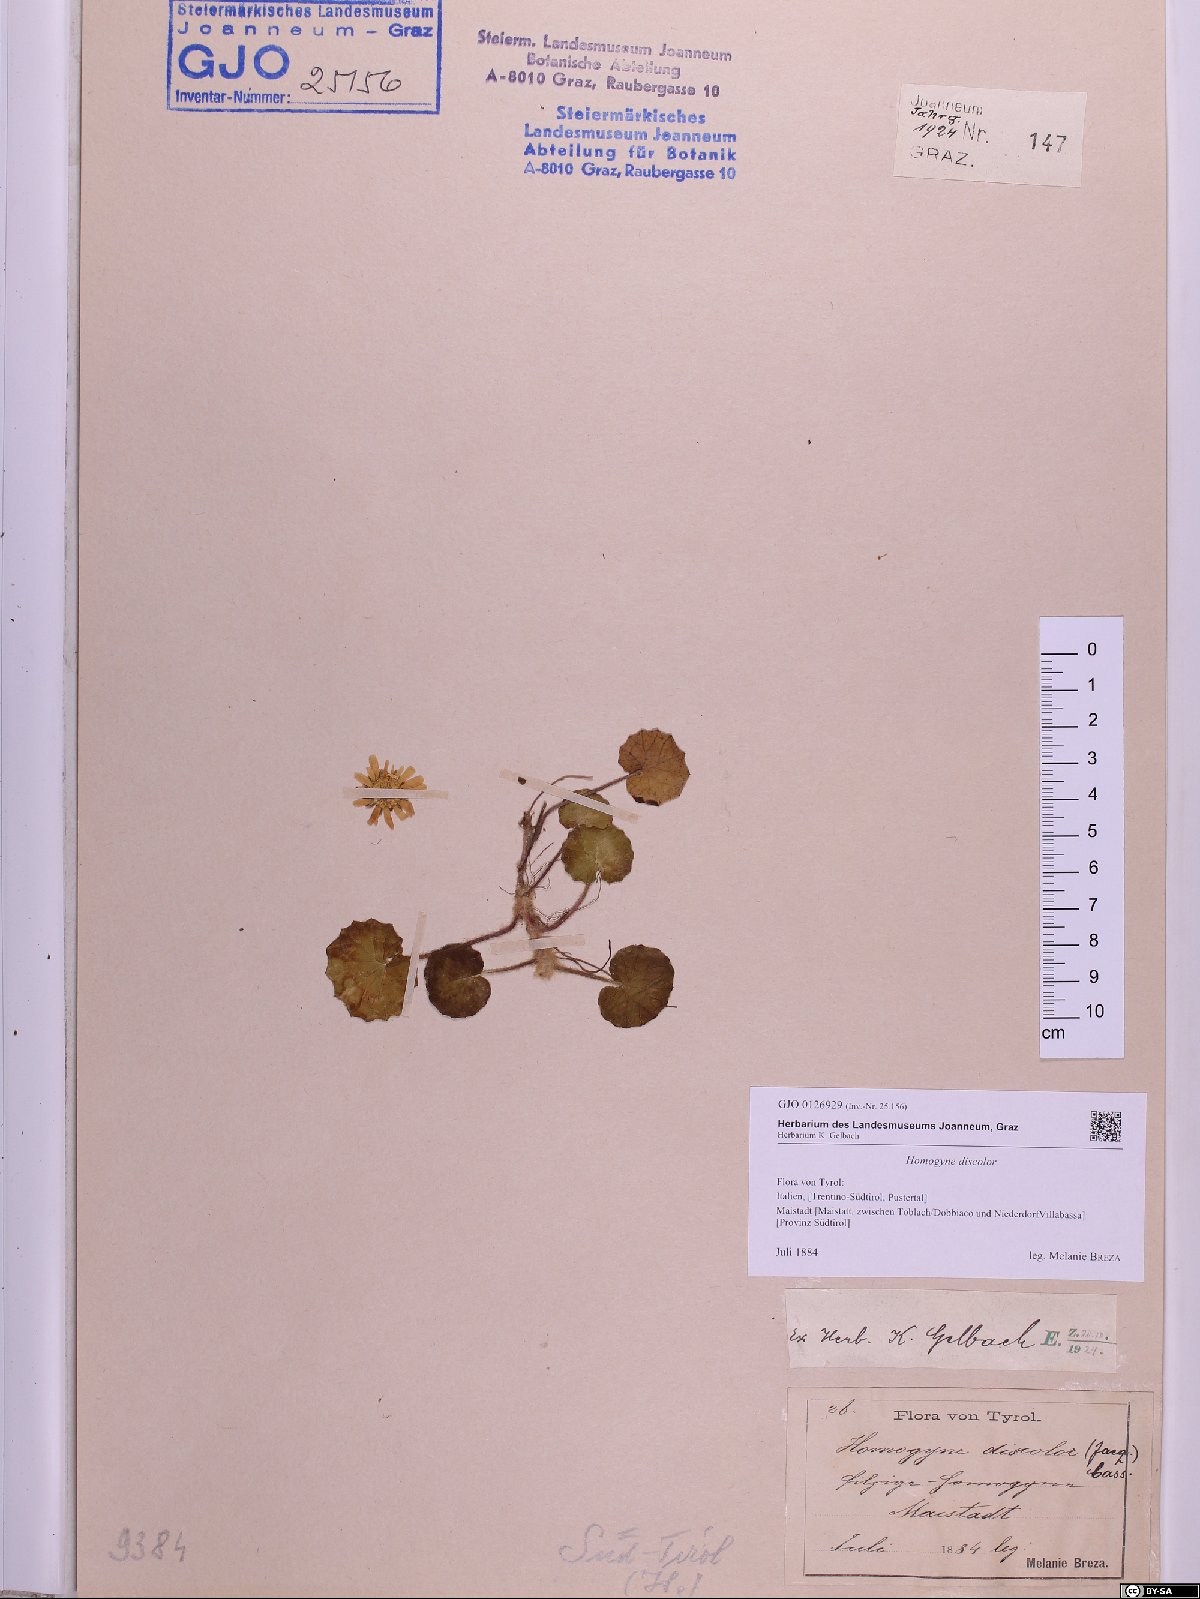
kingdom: Plantae
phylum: Tracheophyta
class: Magnoliopsida
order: Asterales
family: Asteraceae
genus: Homogyne
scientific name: Homogyne discolor
